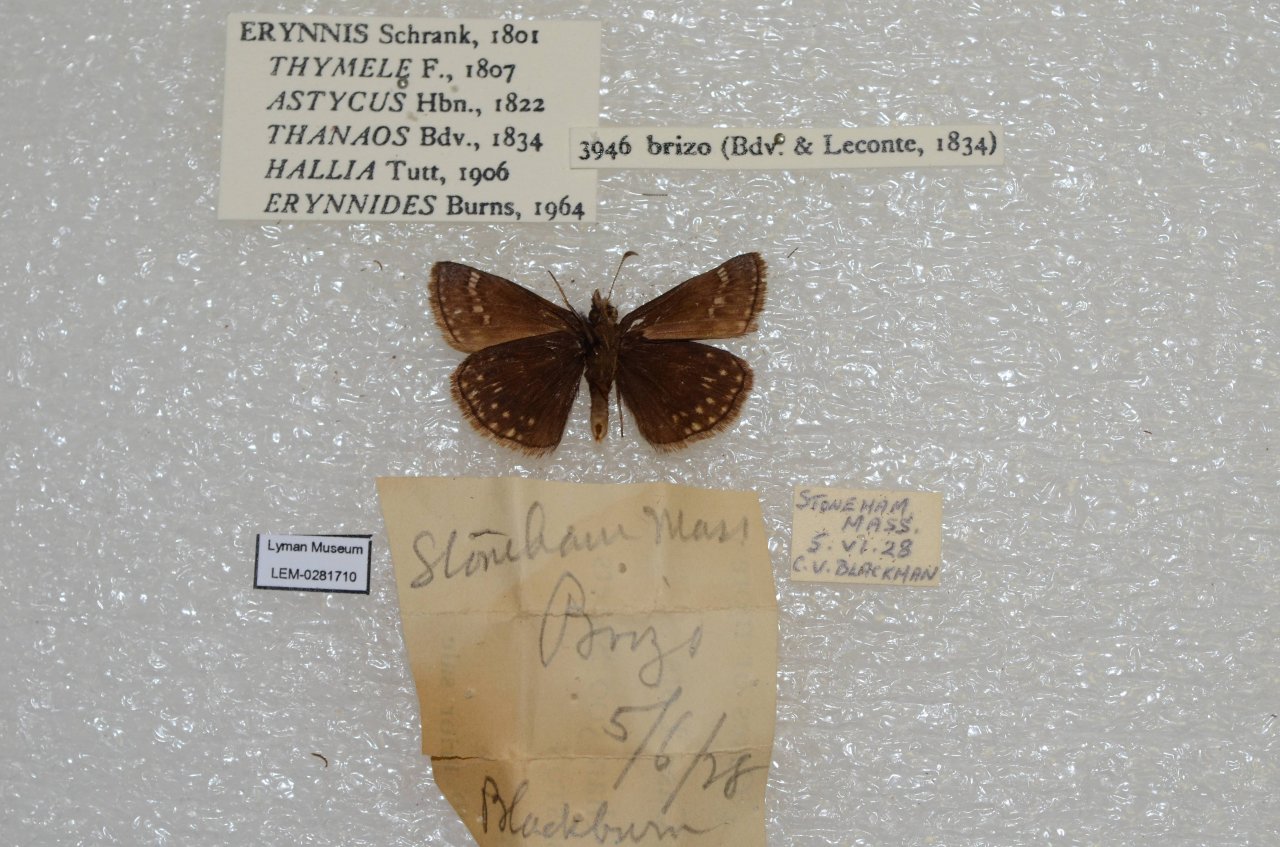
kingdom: Animalia
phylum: Arthropoda
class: Insecta
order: Lepidoptera
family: Hesperiidae
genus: Erynnis
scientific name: Erynnis brizo
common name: Sleepy Duskywing
